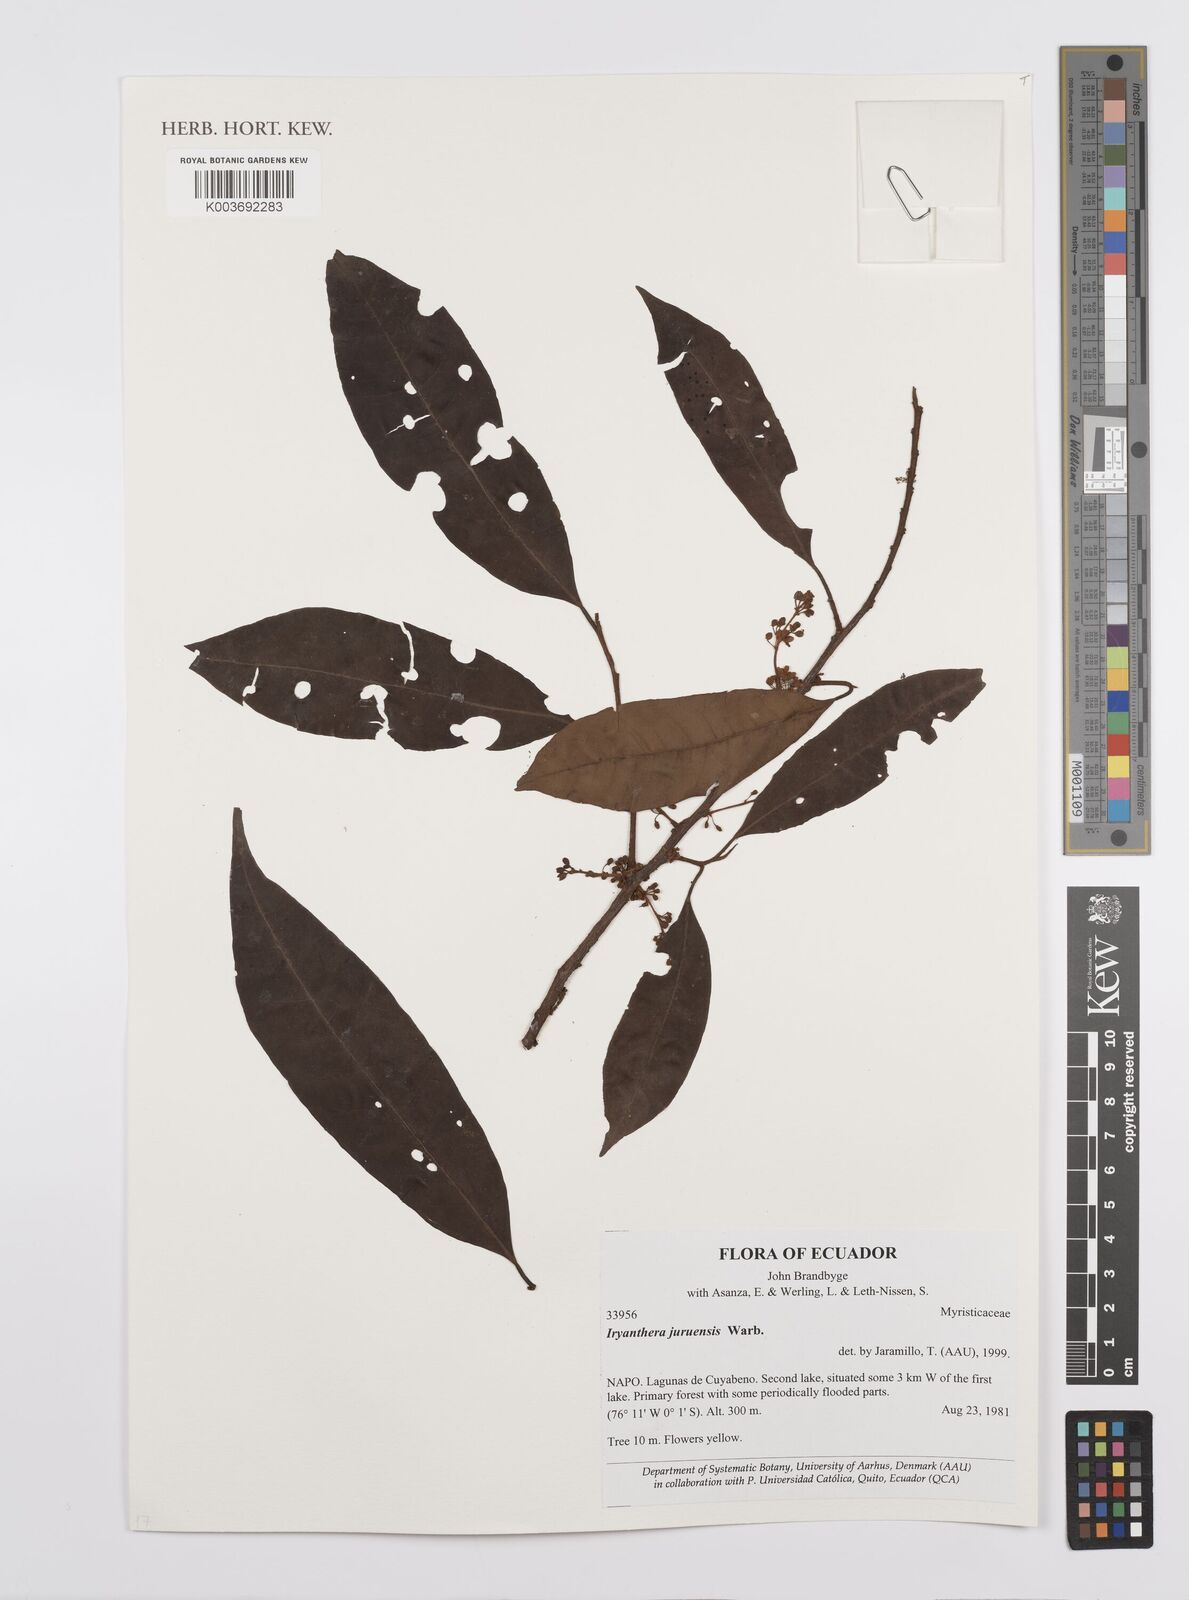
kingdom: Plantae
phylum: Tracheophyta
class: Magnoliopsida
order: Magnoliales
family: Myristicaceae
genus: Iryanthera
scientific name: Iryanthera juruensis
